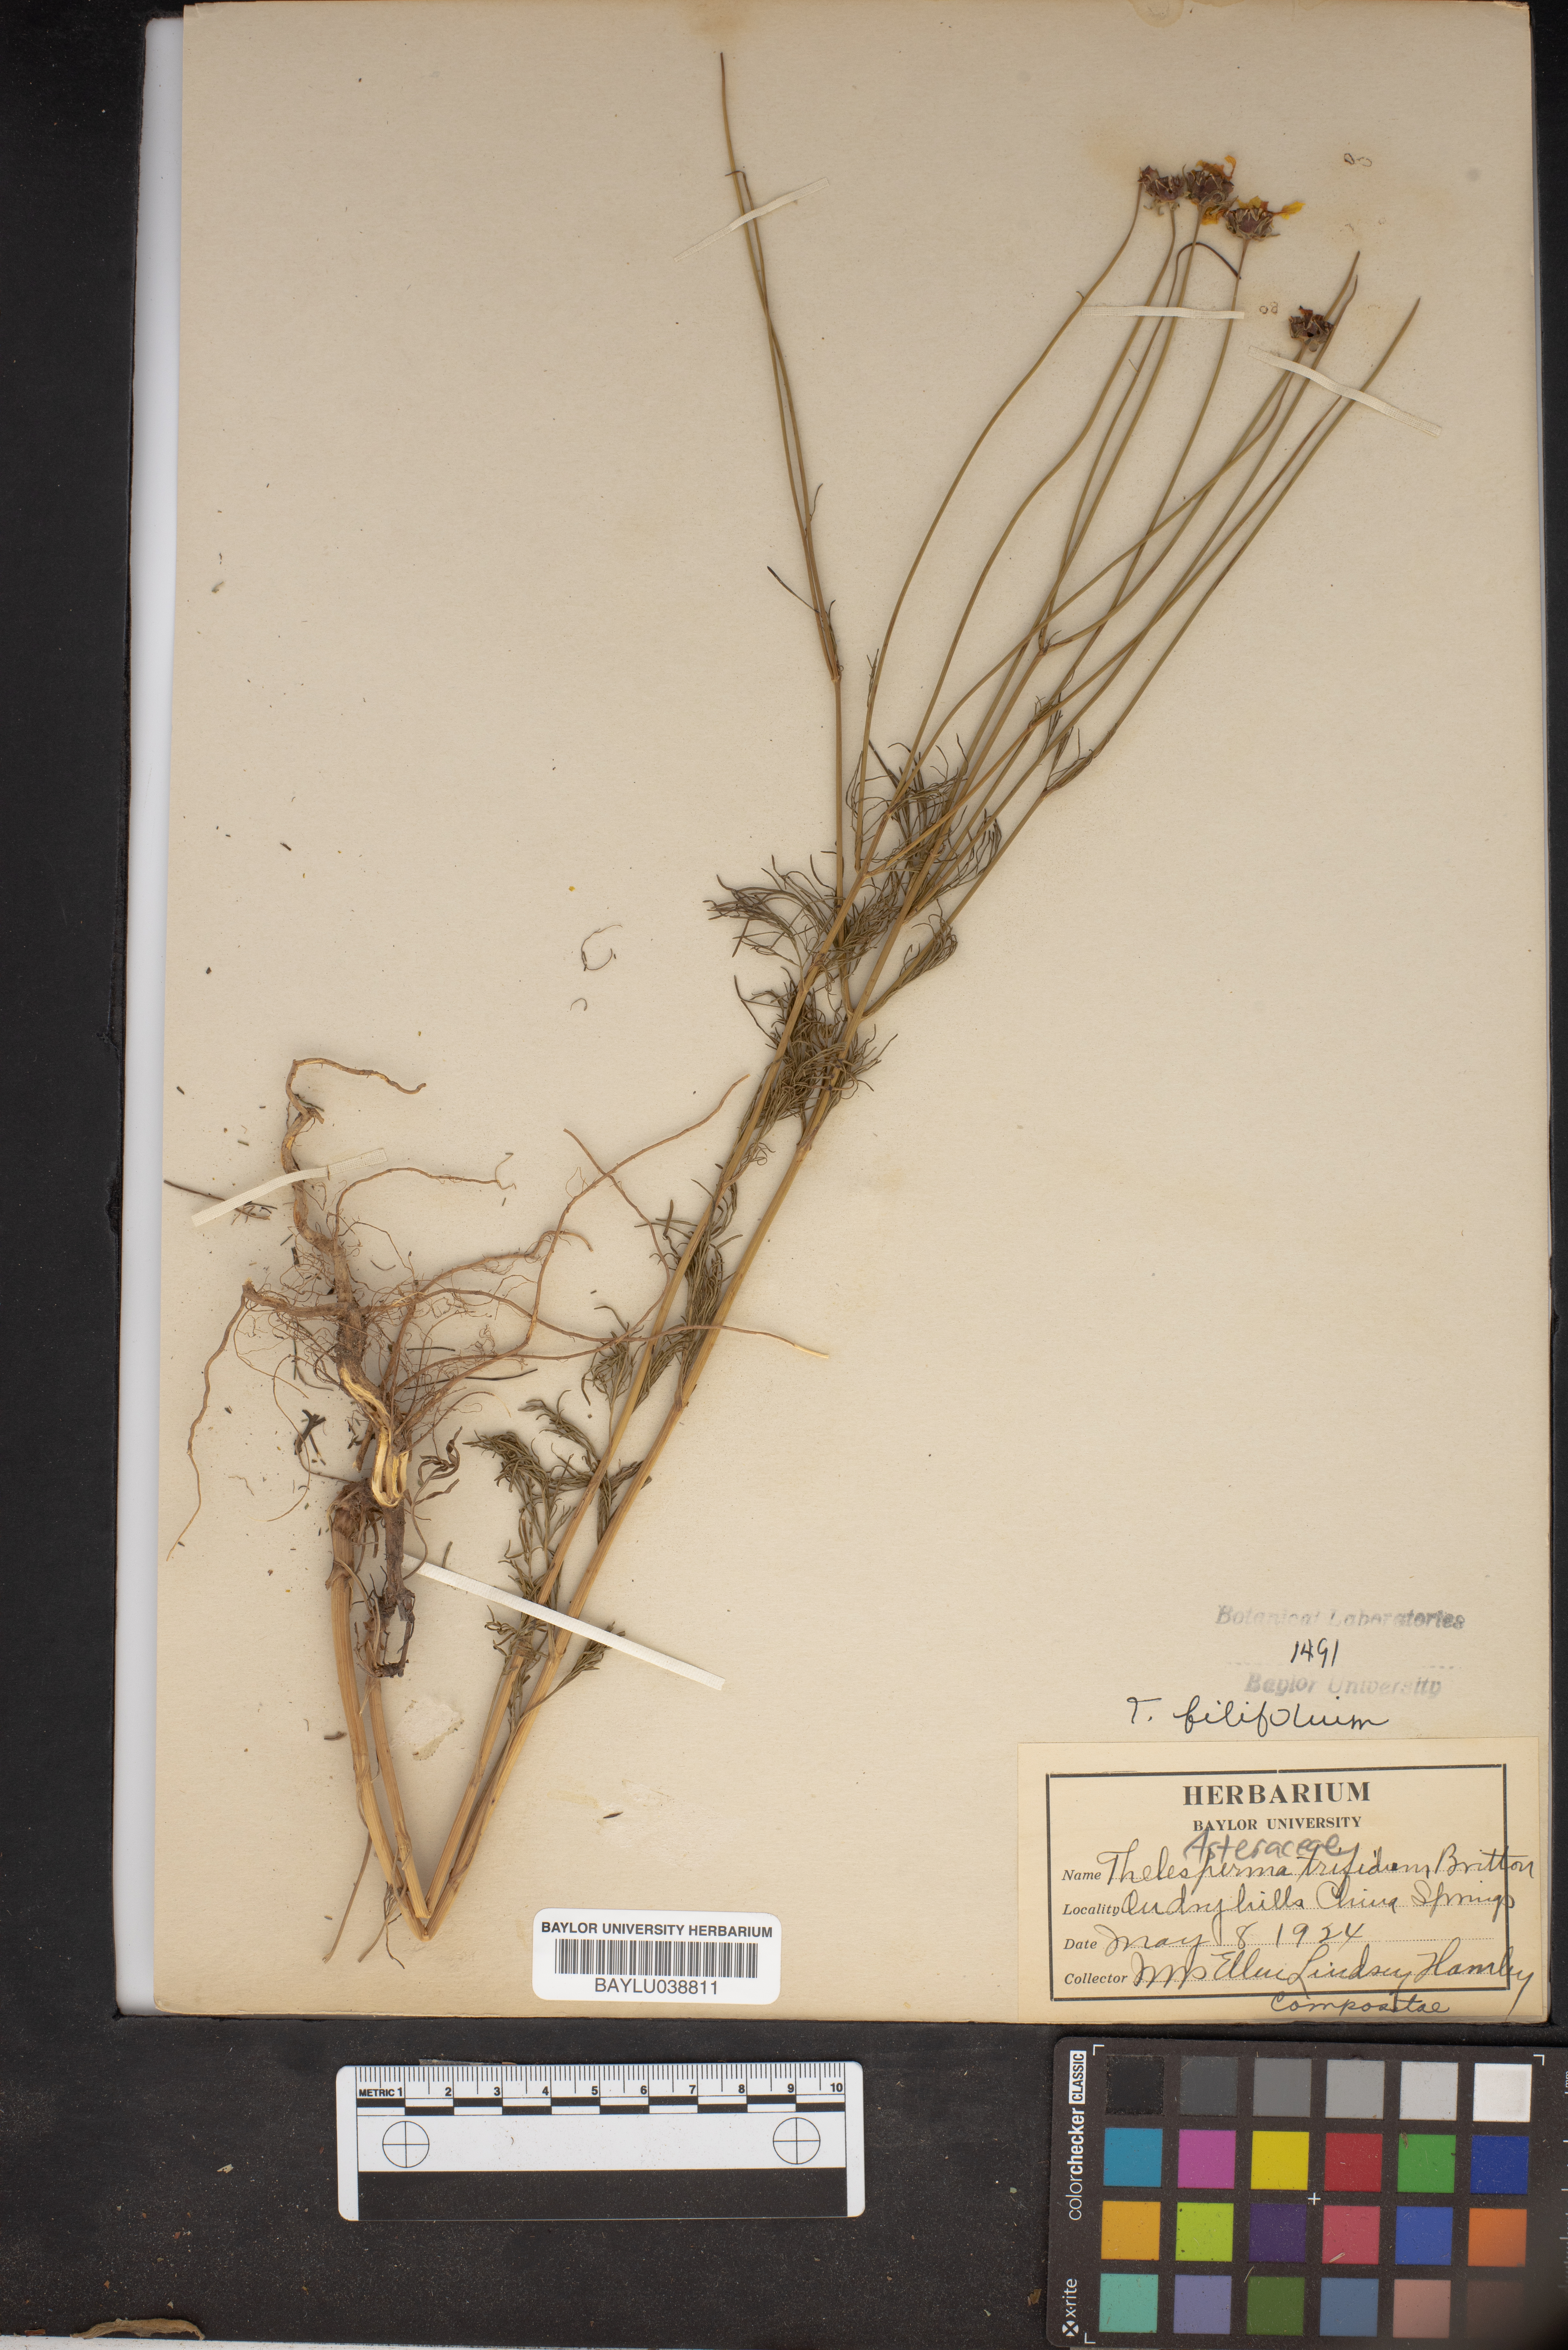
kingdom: Plantae
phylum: Tracheophyta
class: Magnoliopsida
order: Asterales
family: Asteraceae
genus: Thelesperma
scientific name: Thelesperma filifolium
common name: Stiff greenthread
